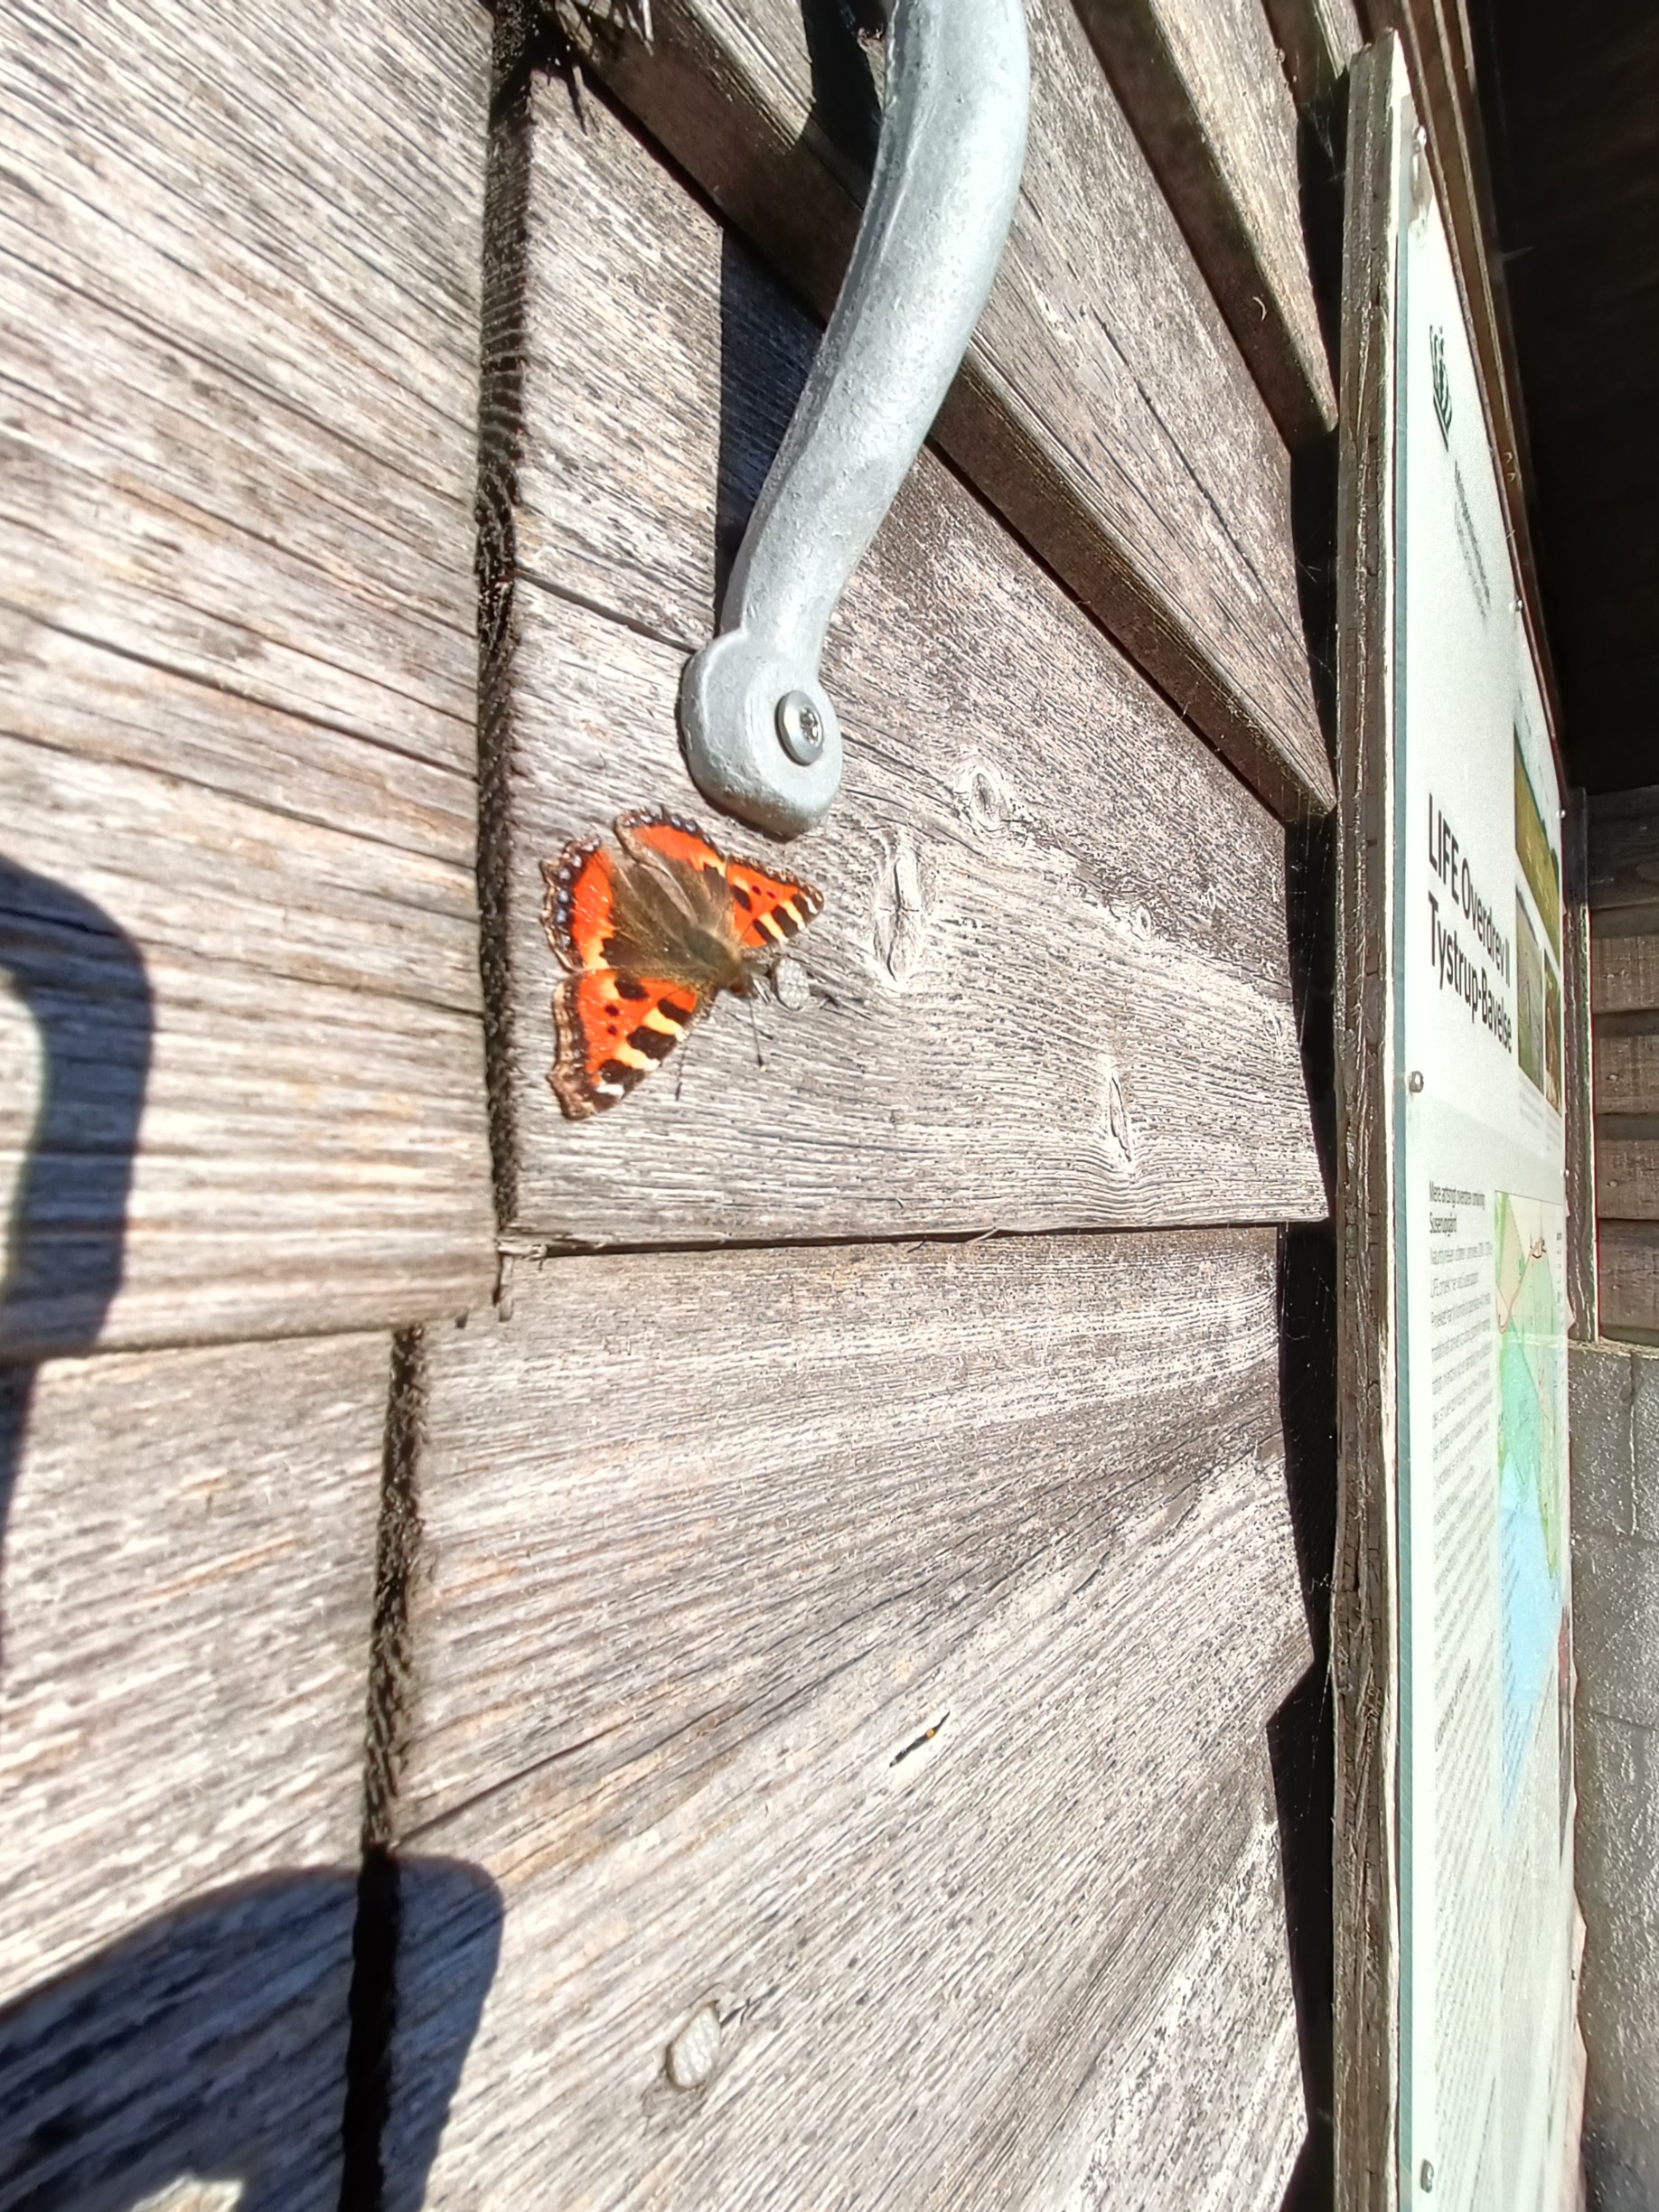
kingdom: Animalia
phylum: Arthropoda
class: Insecta
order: Lepidoptera
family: Nymphalidae
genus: Aglais
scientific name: Aglais urticae
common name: Nældens takvinge
